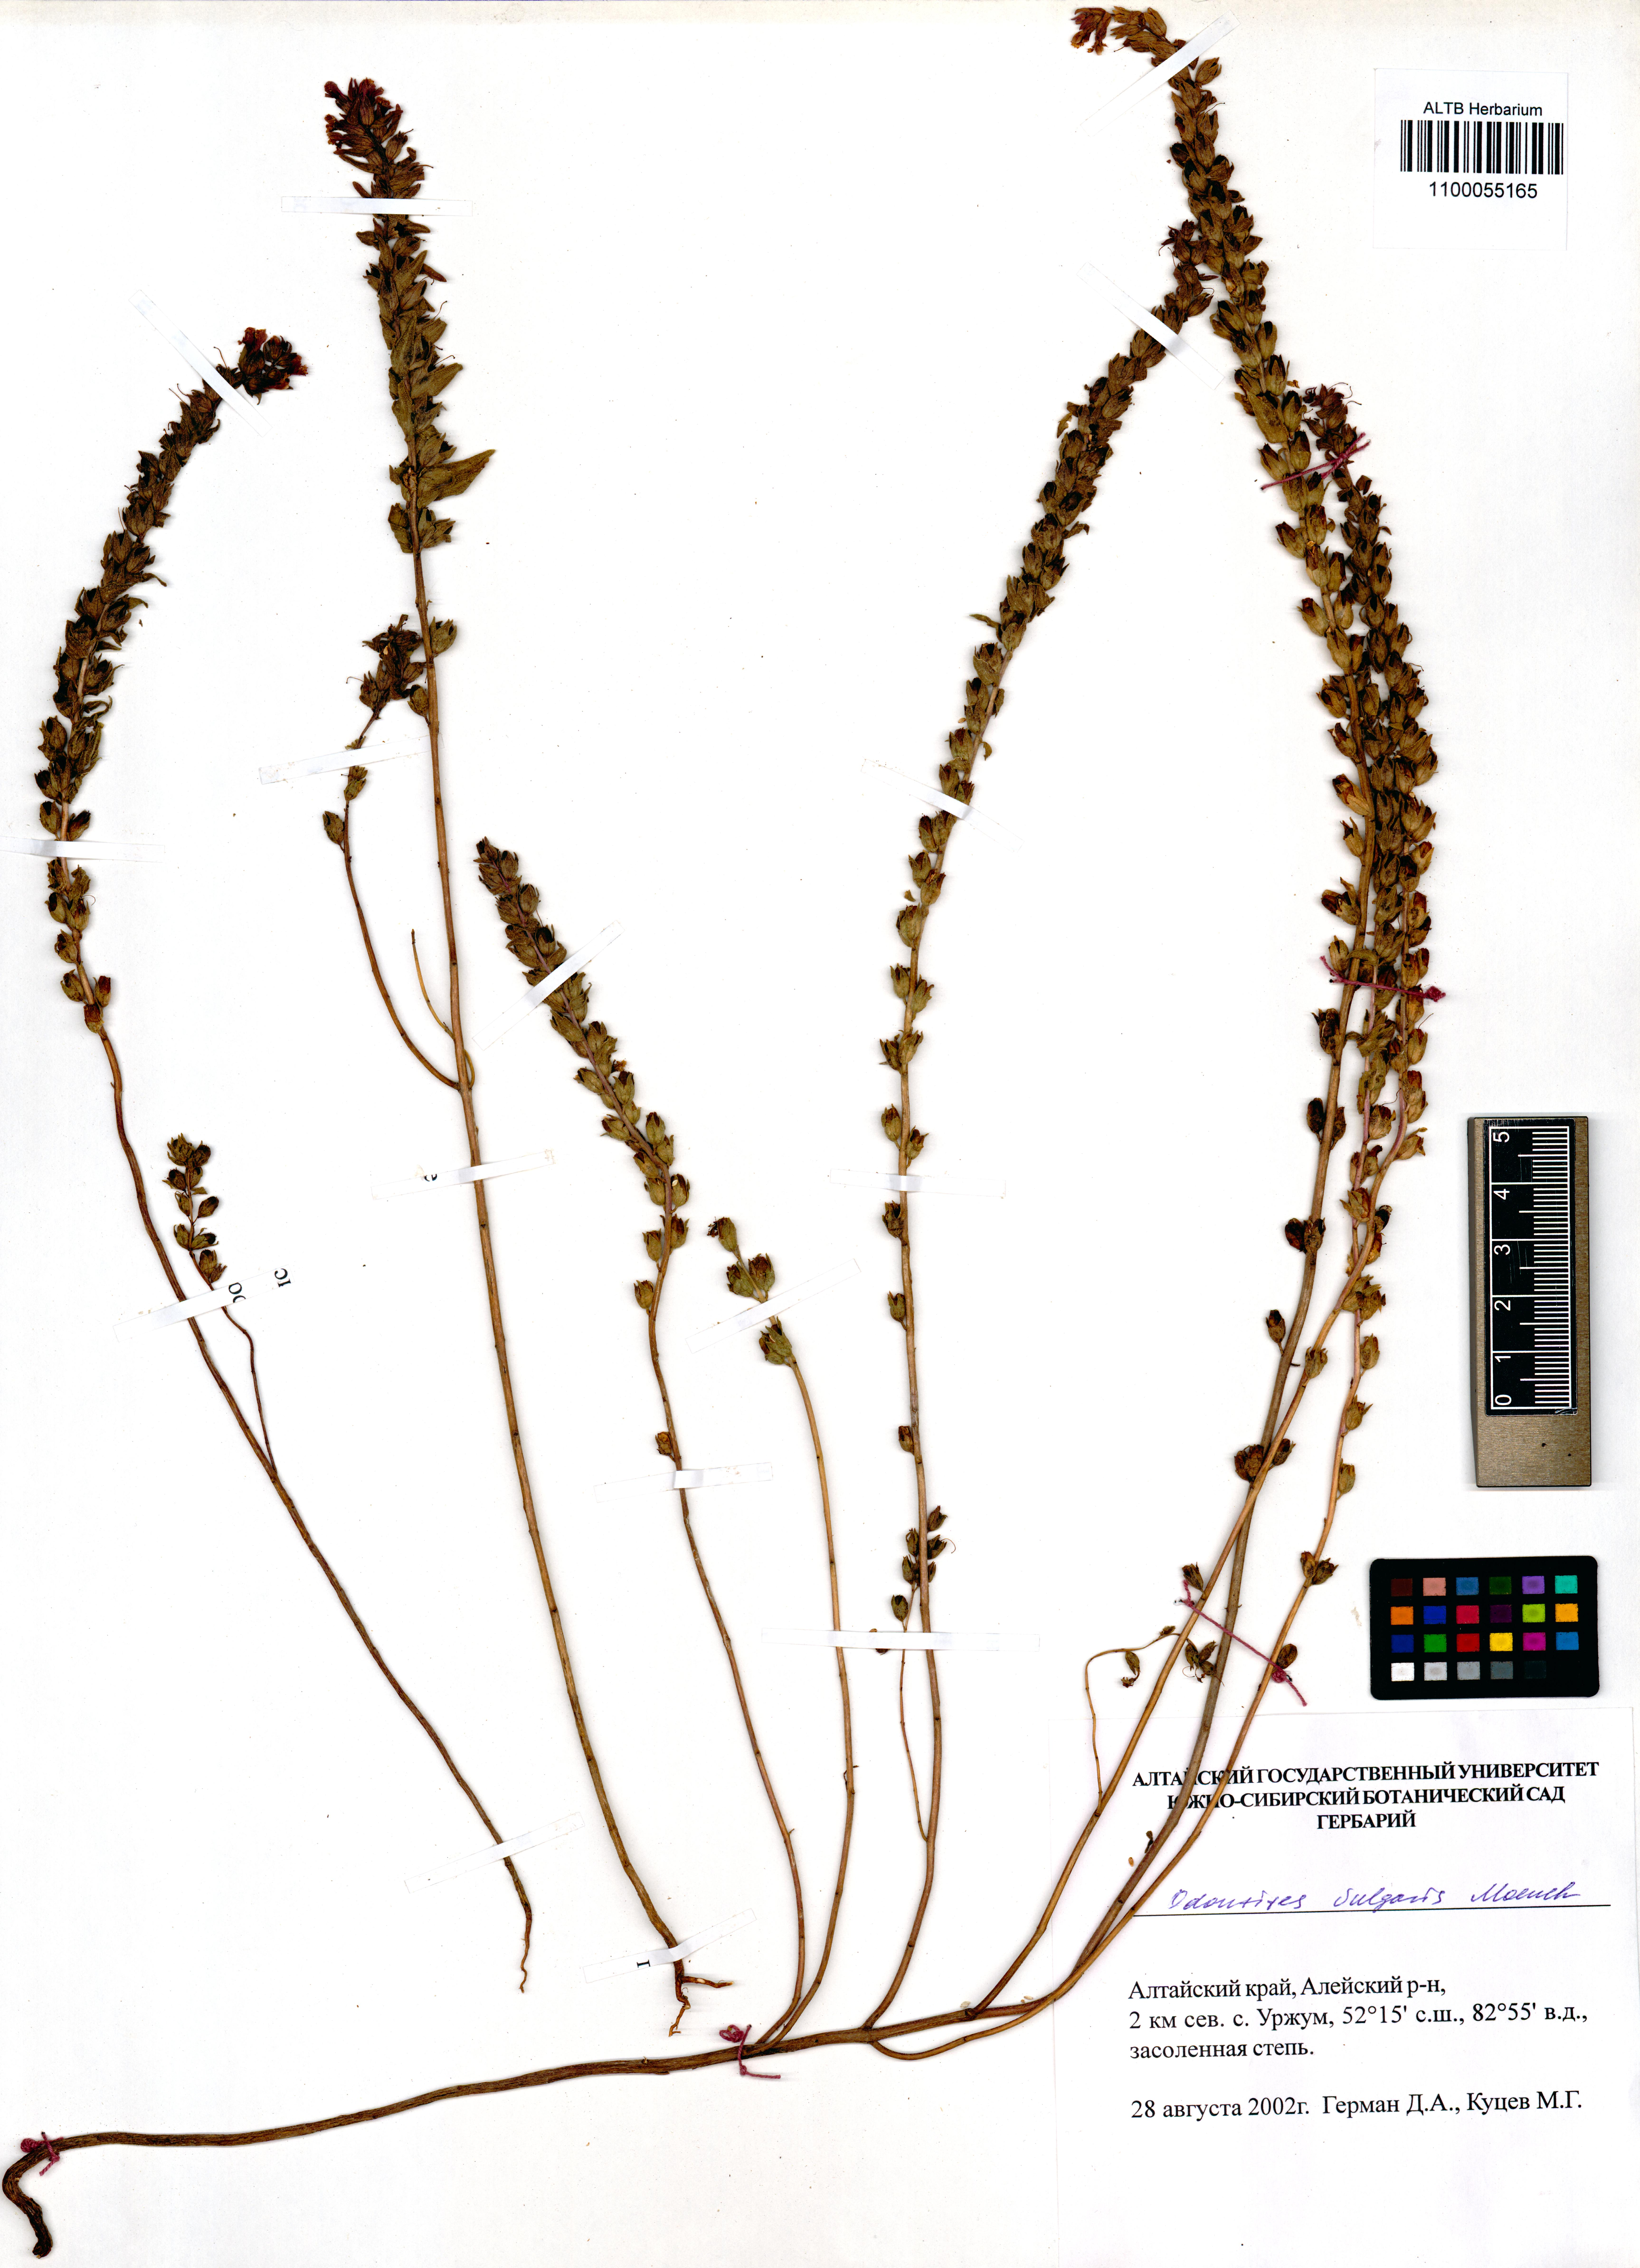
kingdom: Plantae
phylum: Tracheophyta
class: Magnoliopsida
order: Lamiales
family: Orobanchaceae
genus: Odontites
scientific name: Odontites vulgaris
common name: Broomrape
